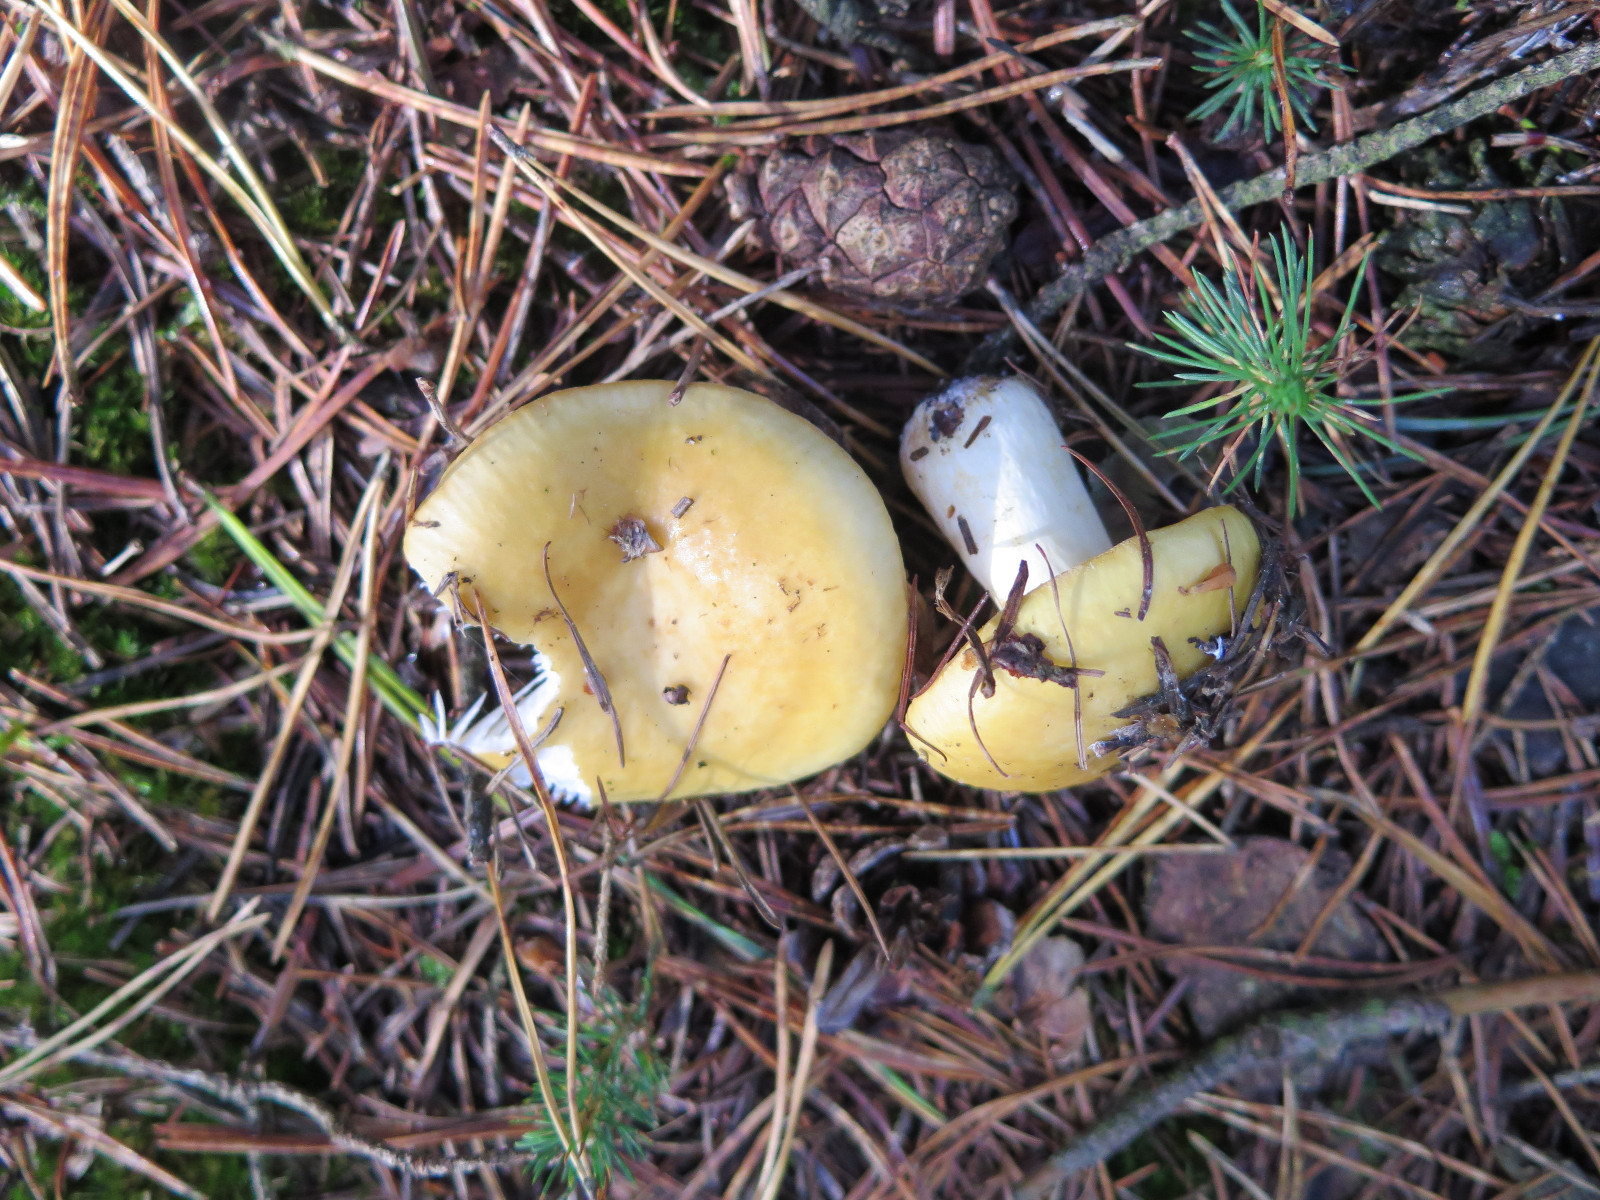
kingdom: Fungi
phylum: Basidiomycota
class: Agaricomycetes
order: Russulales
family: Russulaceae
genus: Russula
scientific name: Russula ochroleuca
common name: okkergul skørhat
